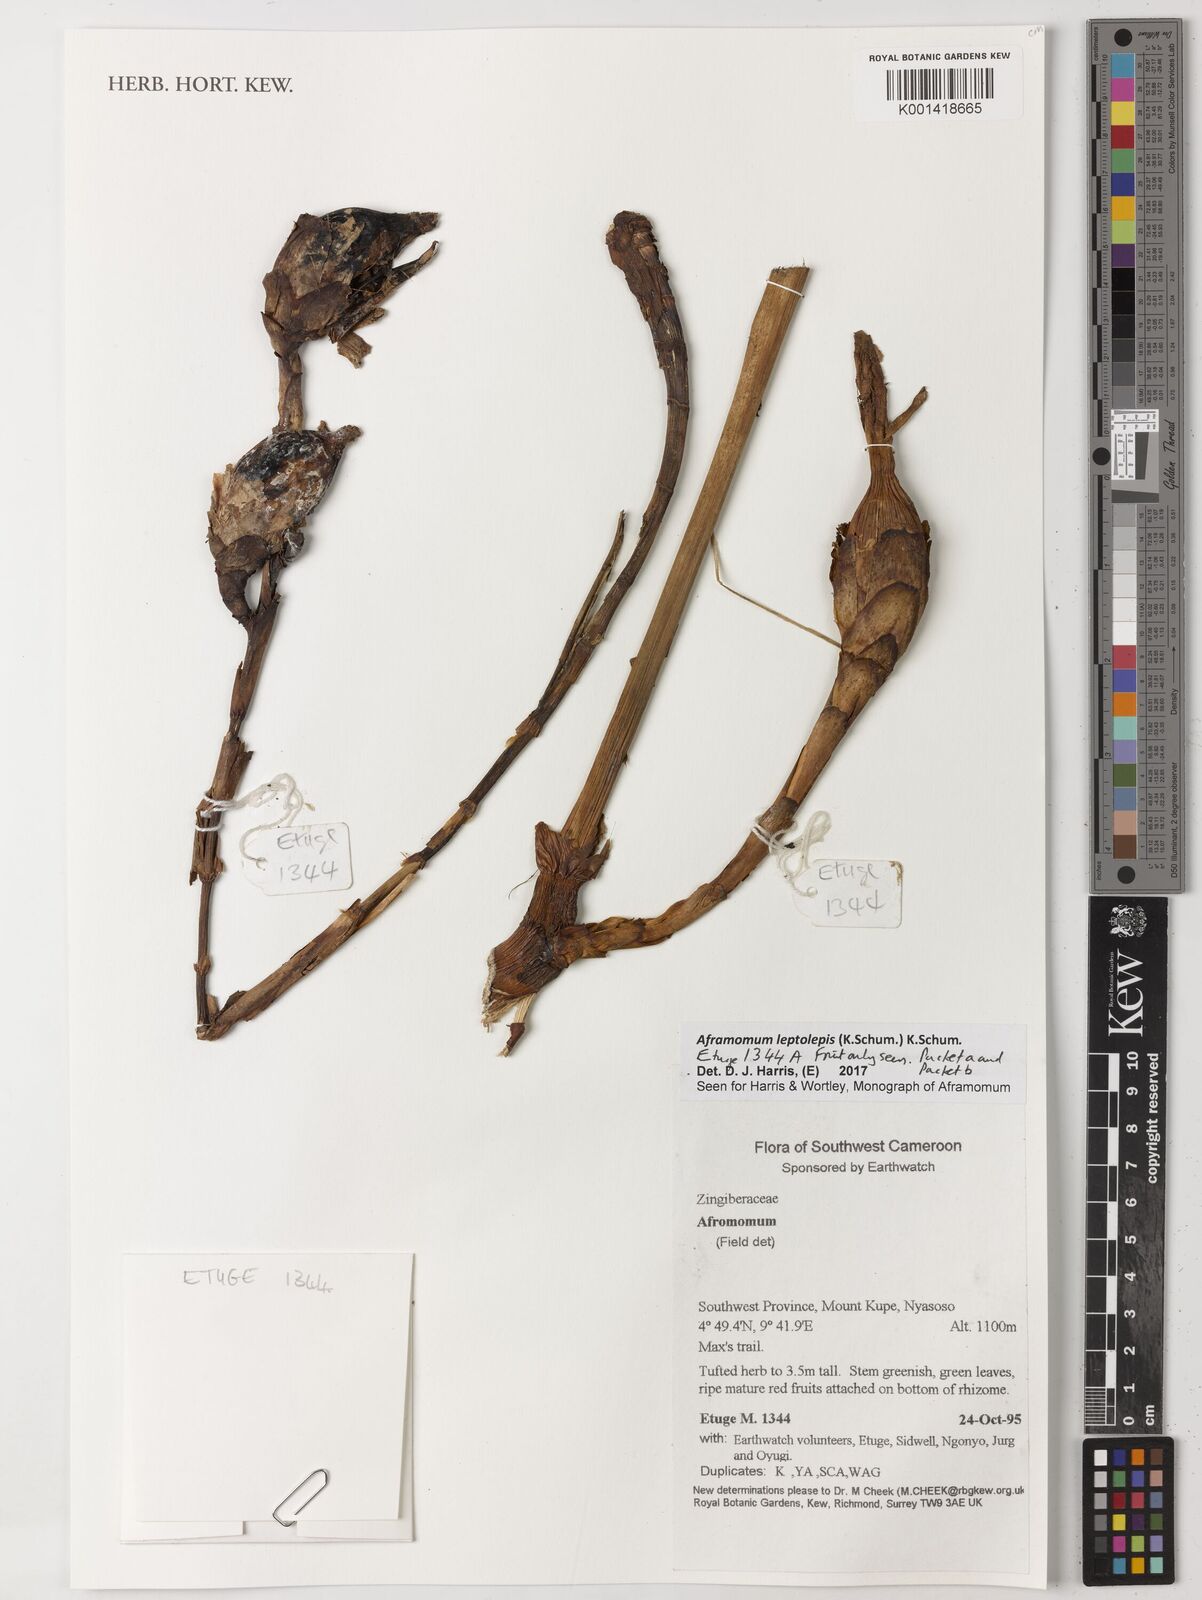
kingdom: Plantae
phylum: Tracheophyta
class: Liliopsida
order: Zingiberales
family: Zingiberaceae
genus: Aframomum
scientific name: Aframomum leptolepis
